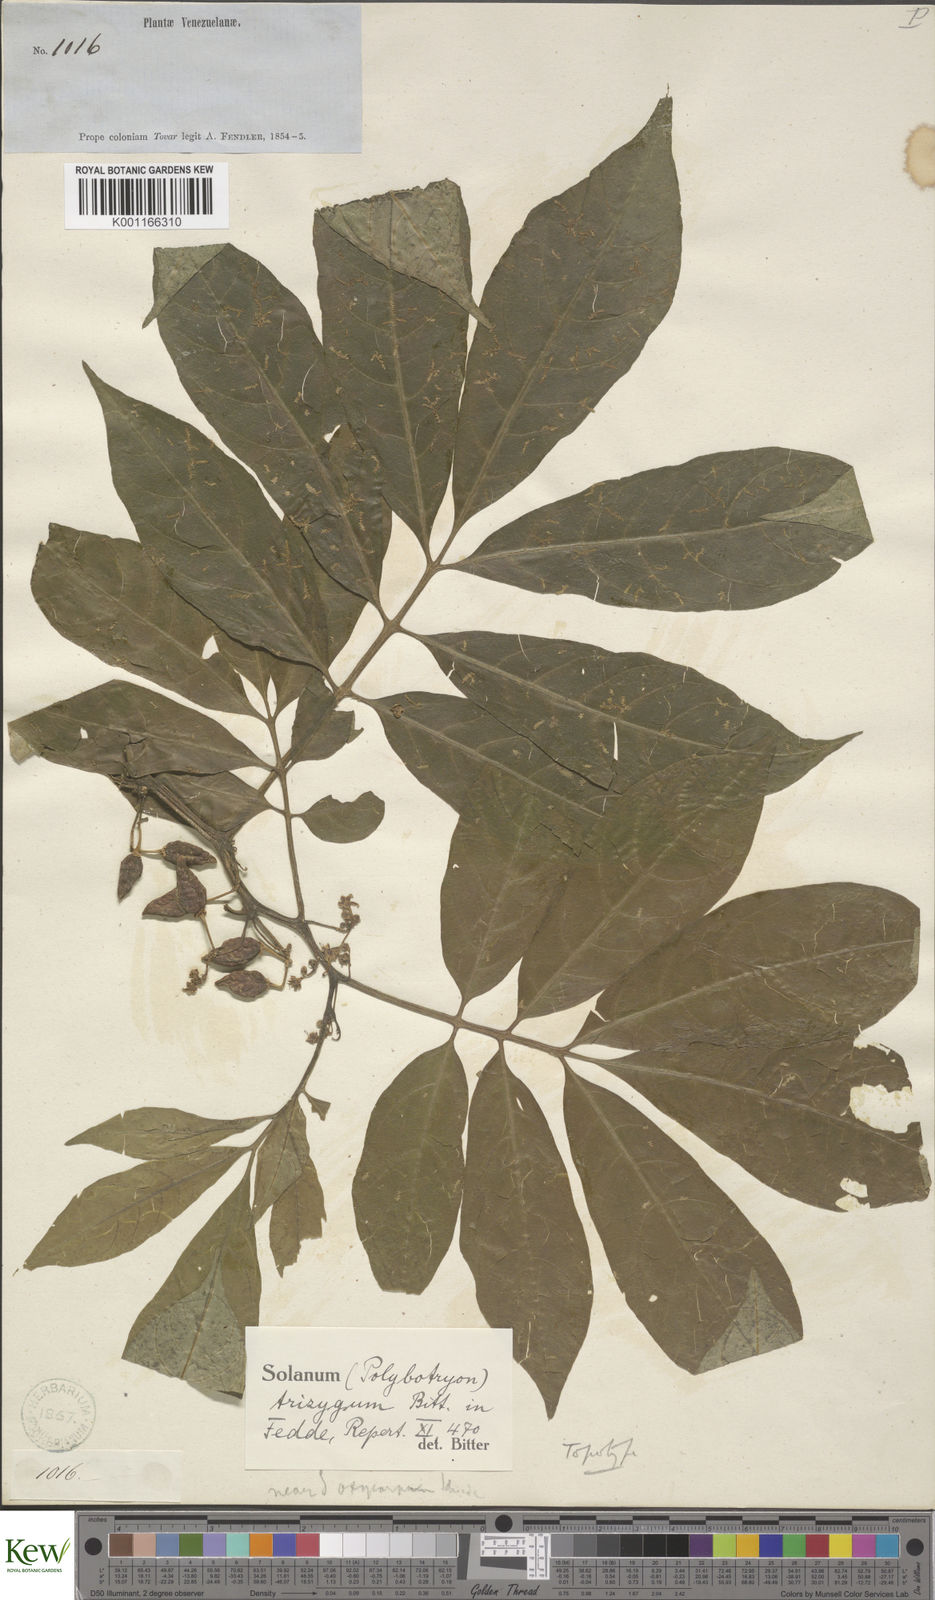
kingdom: Plantae
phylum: Tracheophyta
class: Magnoliopsida
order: Solanales
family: Solanaceae
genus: Solanum
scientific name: Solanum trizygum
